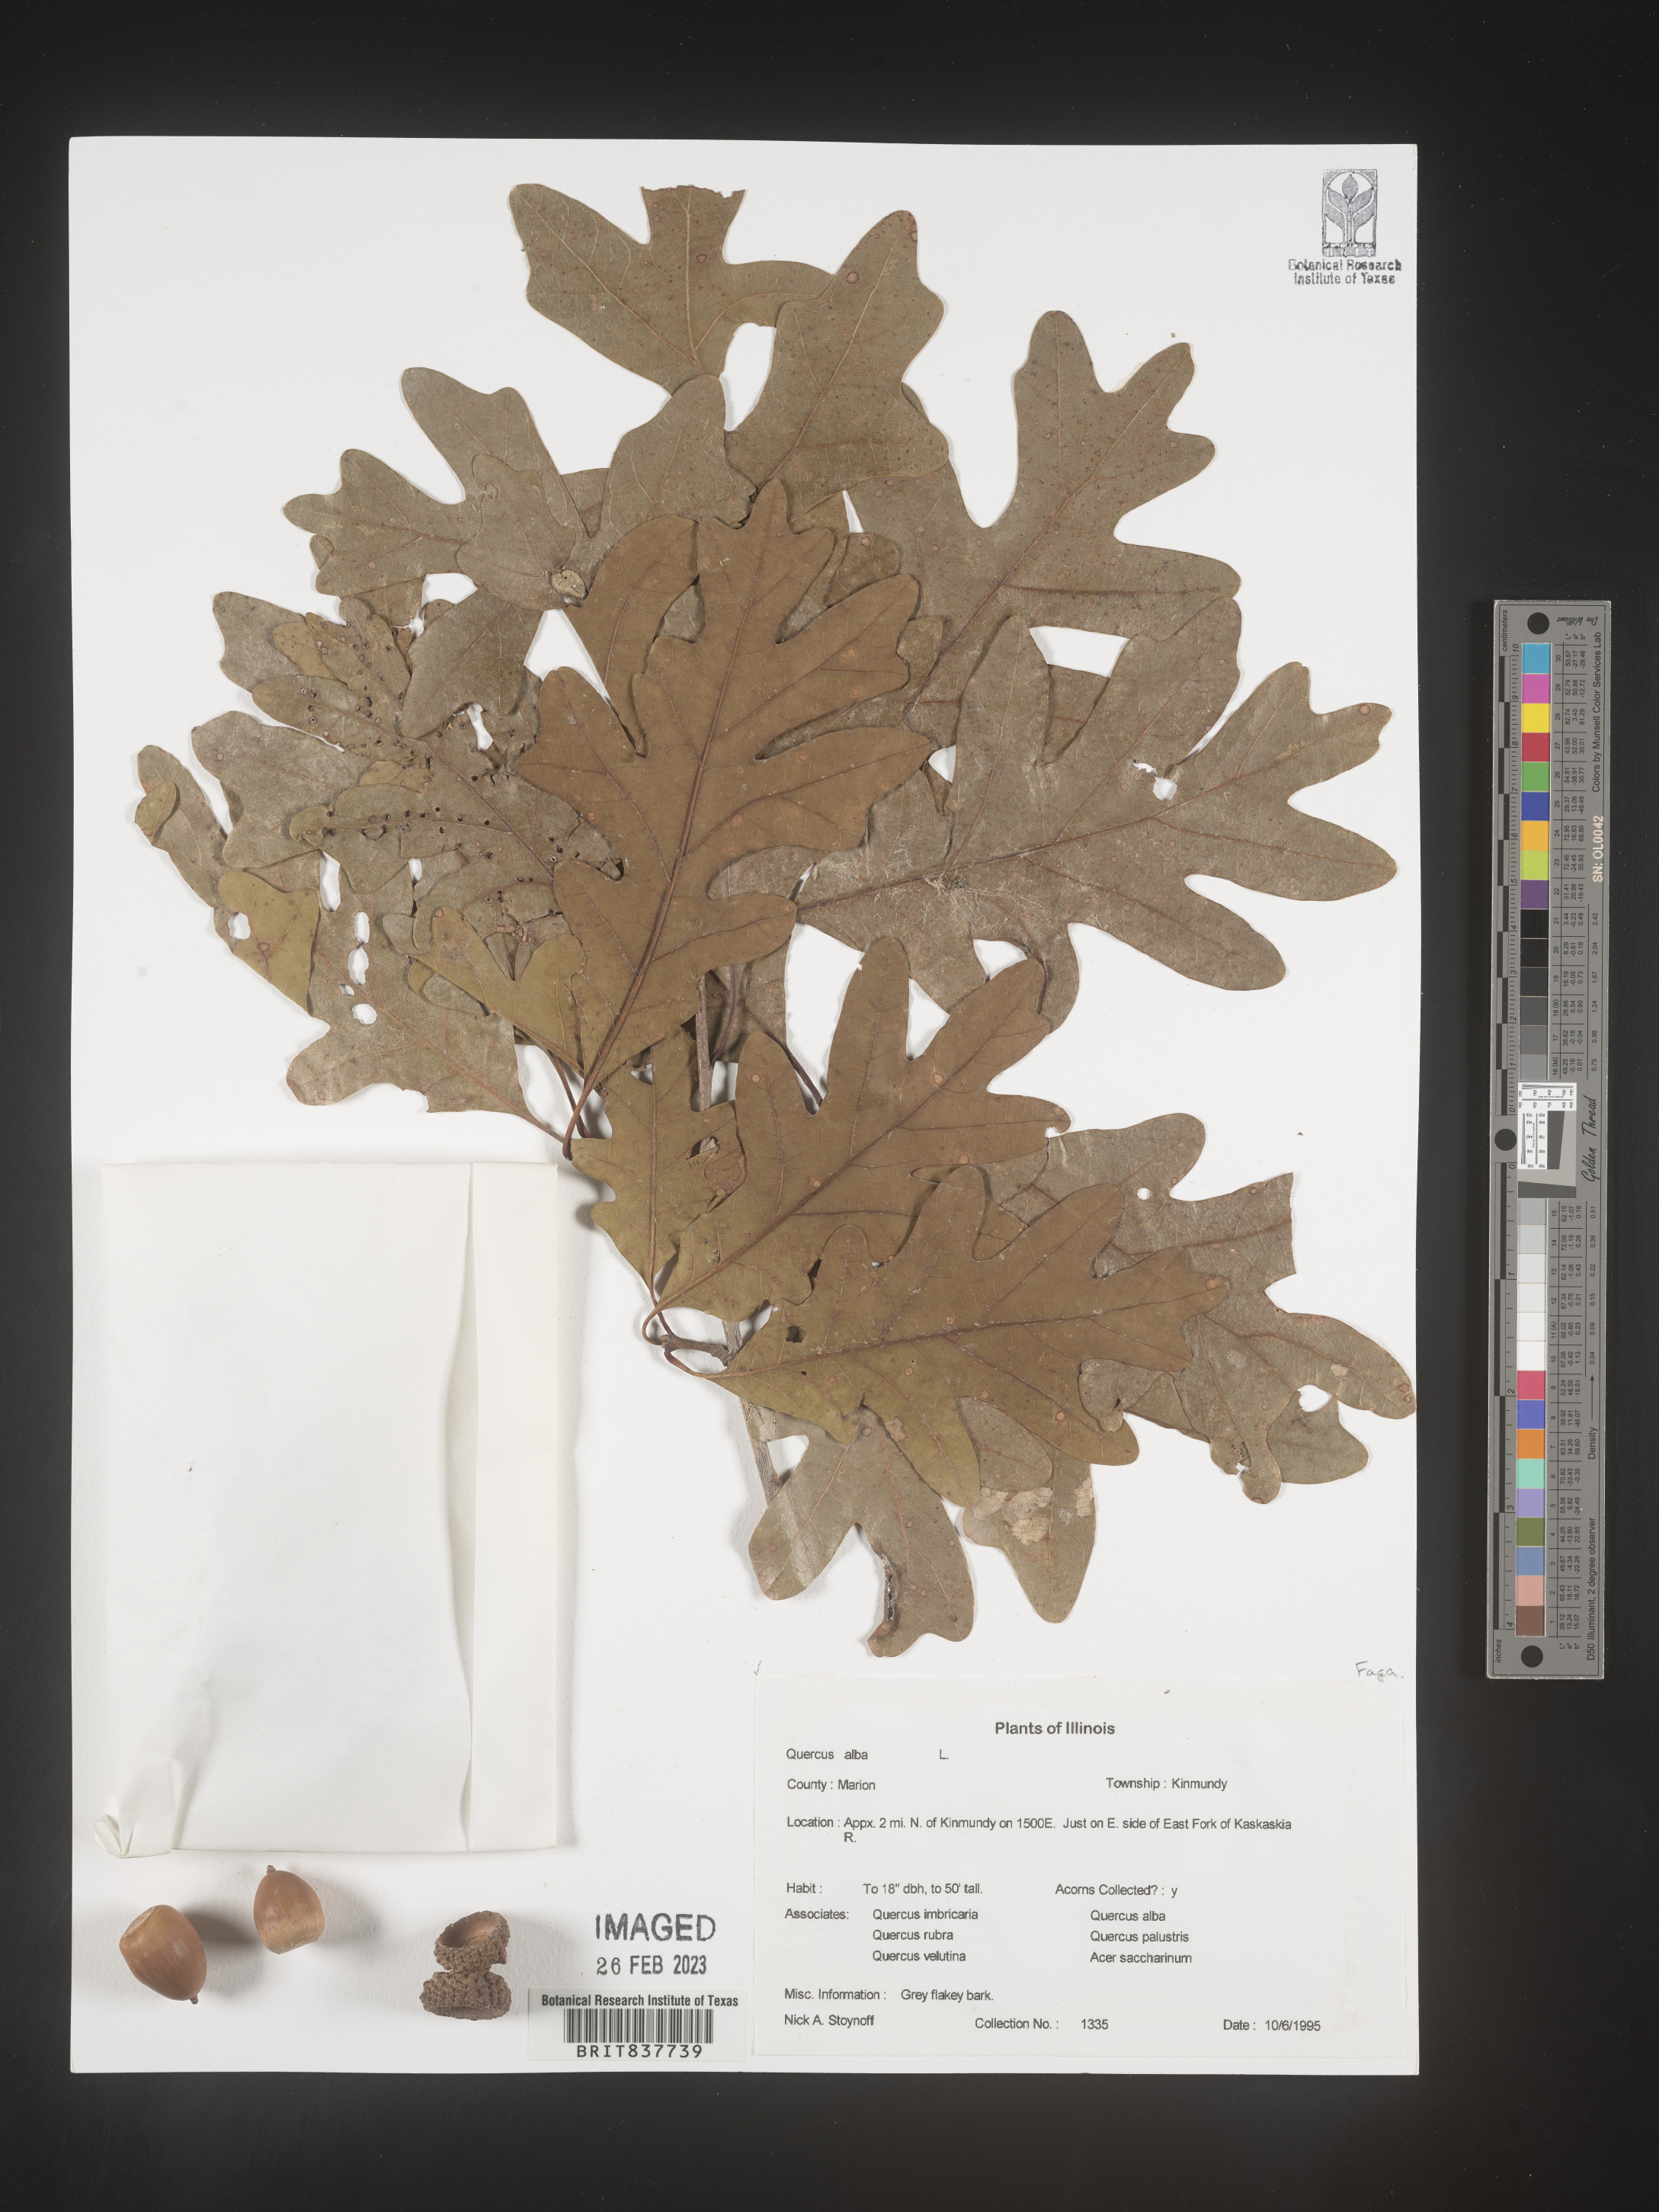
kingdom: Plantae
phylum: Tracheophyta
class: Magnoliopsida
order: Fagales
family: Fagaceae
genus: Quercus
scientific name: Quercus alba
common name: White oak
